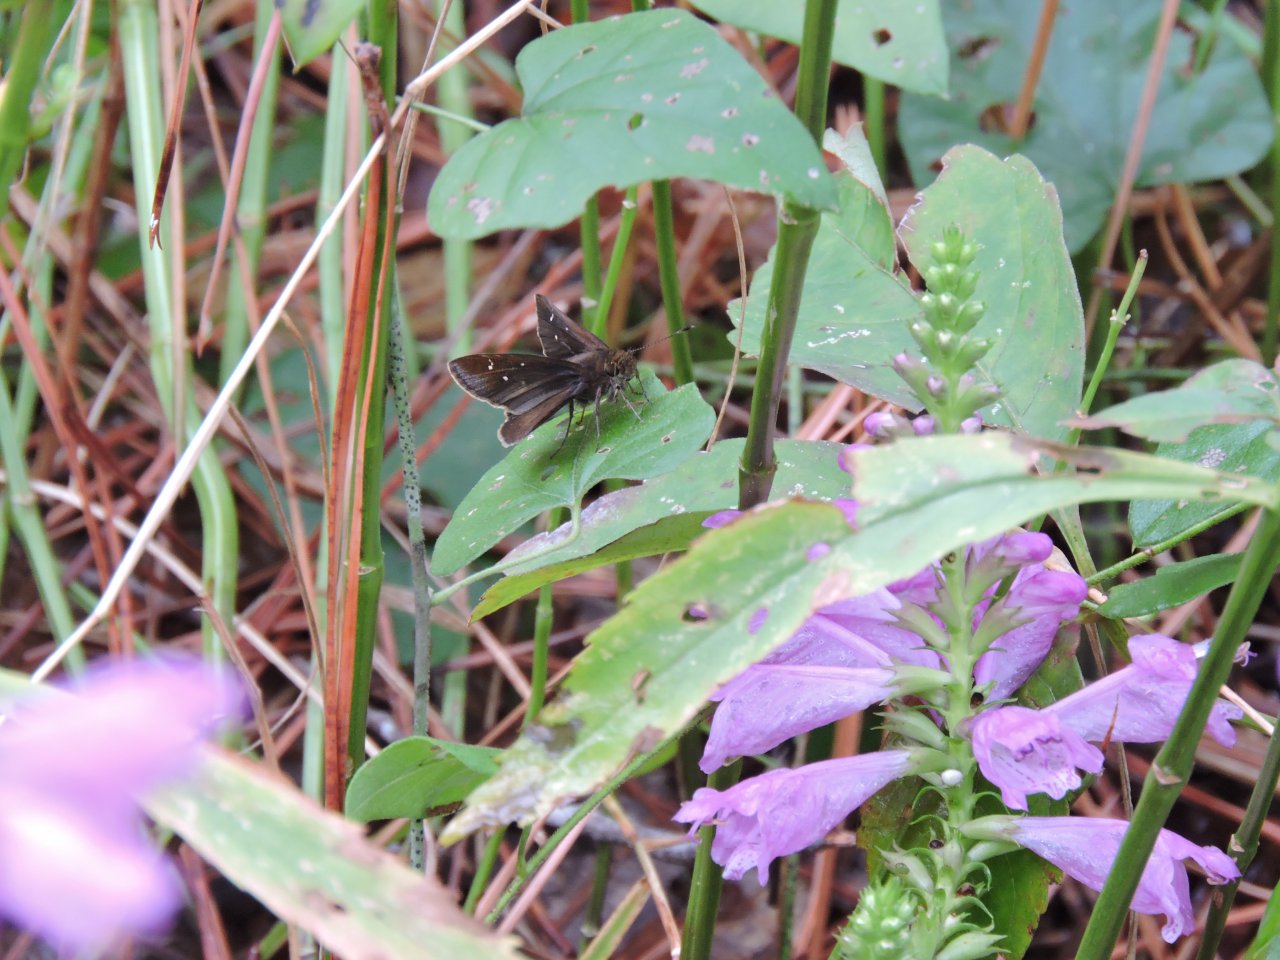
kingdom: Animalia
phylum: Arthropoda
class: Insecta
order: Lepidoptera
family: Hesperiidae
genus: Lerema
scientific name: Lerema accius
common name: Clouded Skipper
